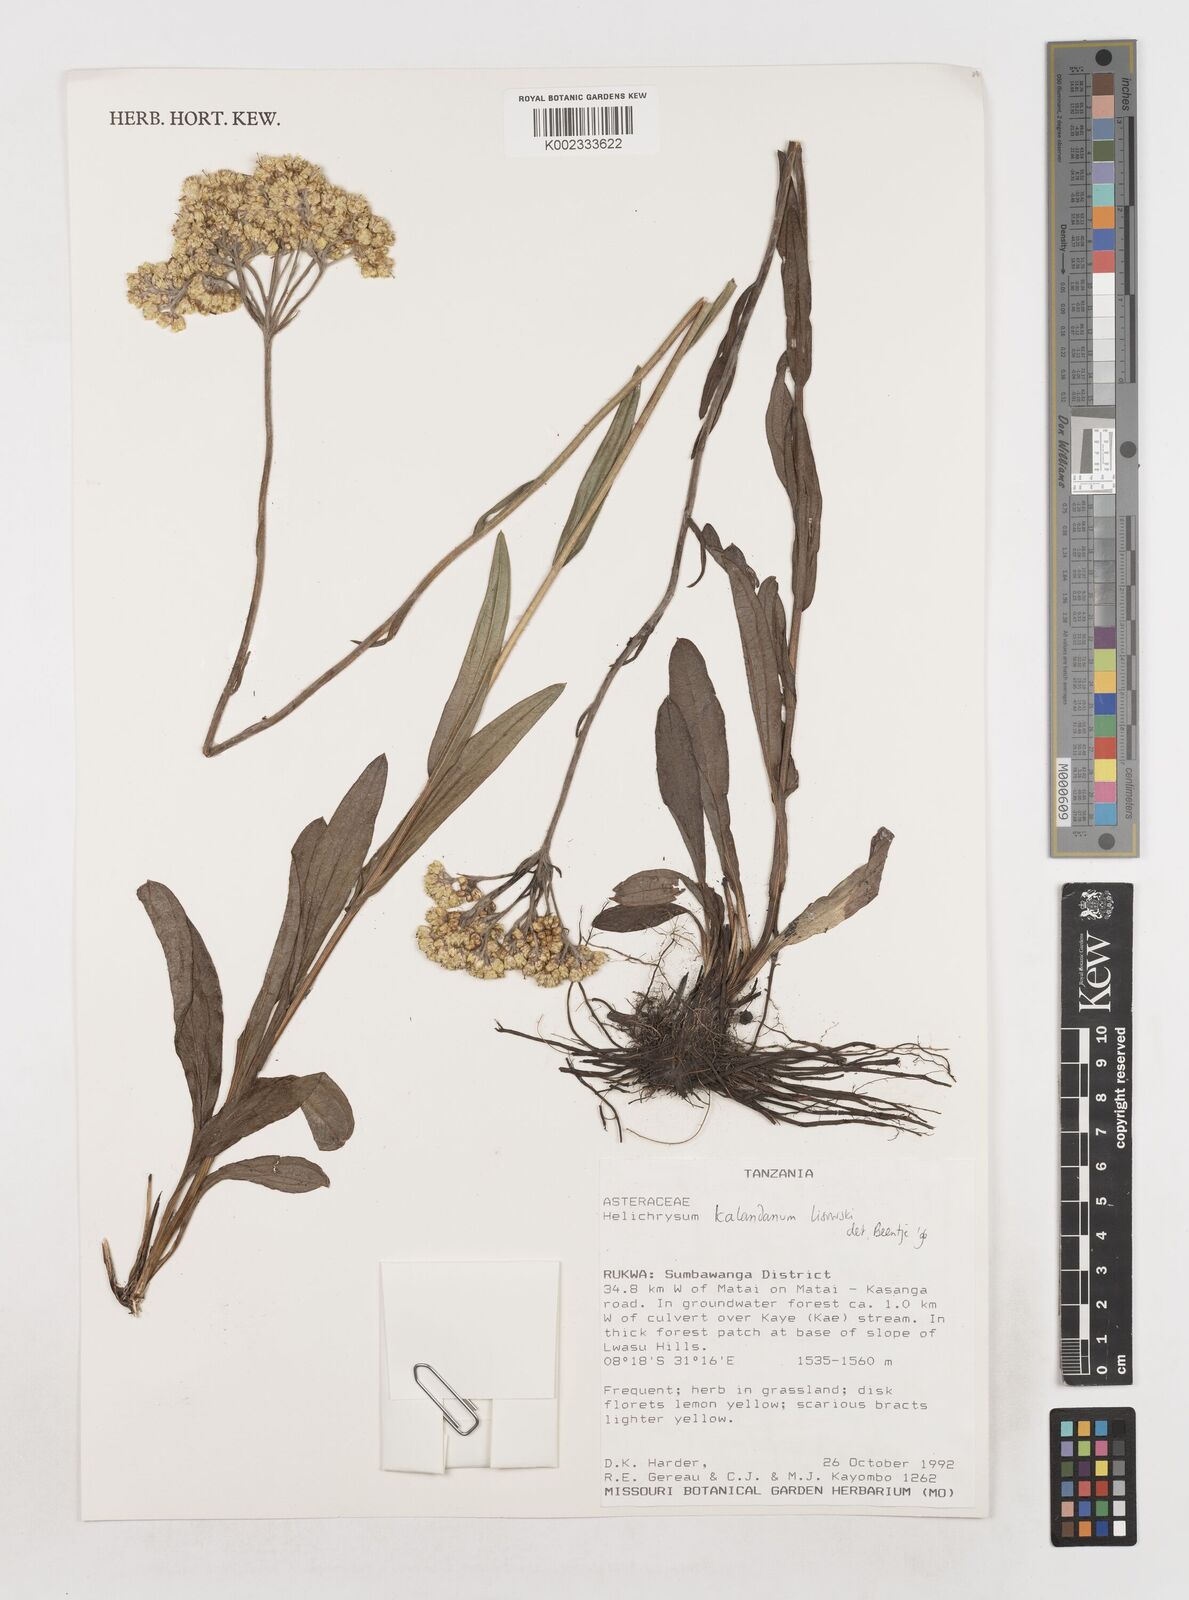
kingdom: Plantae
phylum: Tracheophyta
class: Magnoliopsida
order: Asterales
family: Asteraceae
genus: Helichrysum
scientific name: Helichrysum kalandanum
